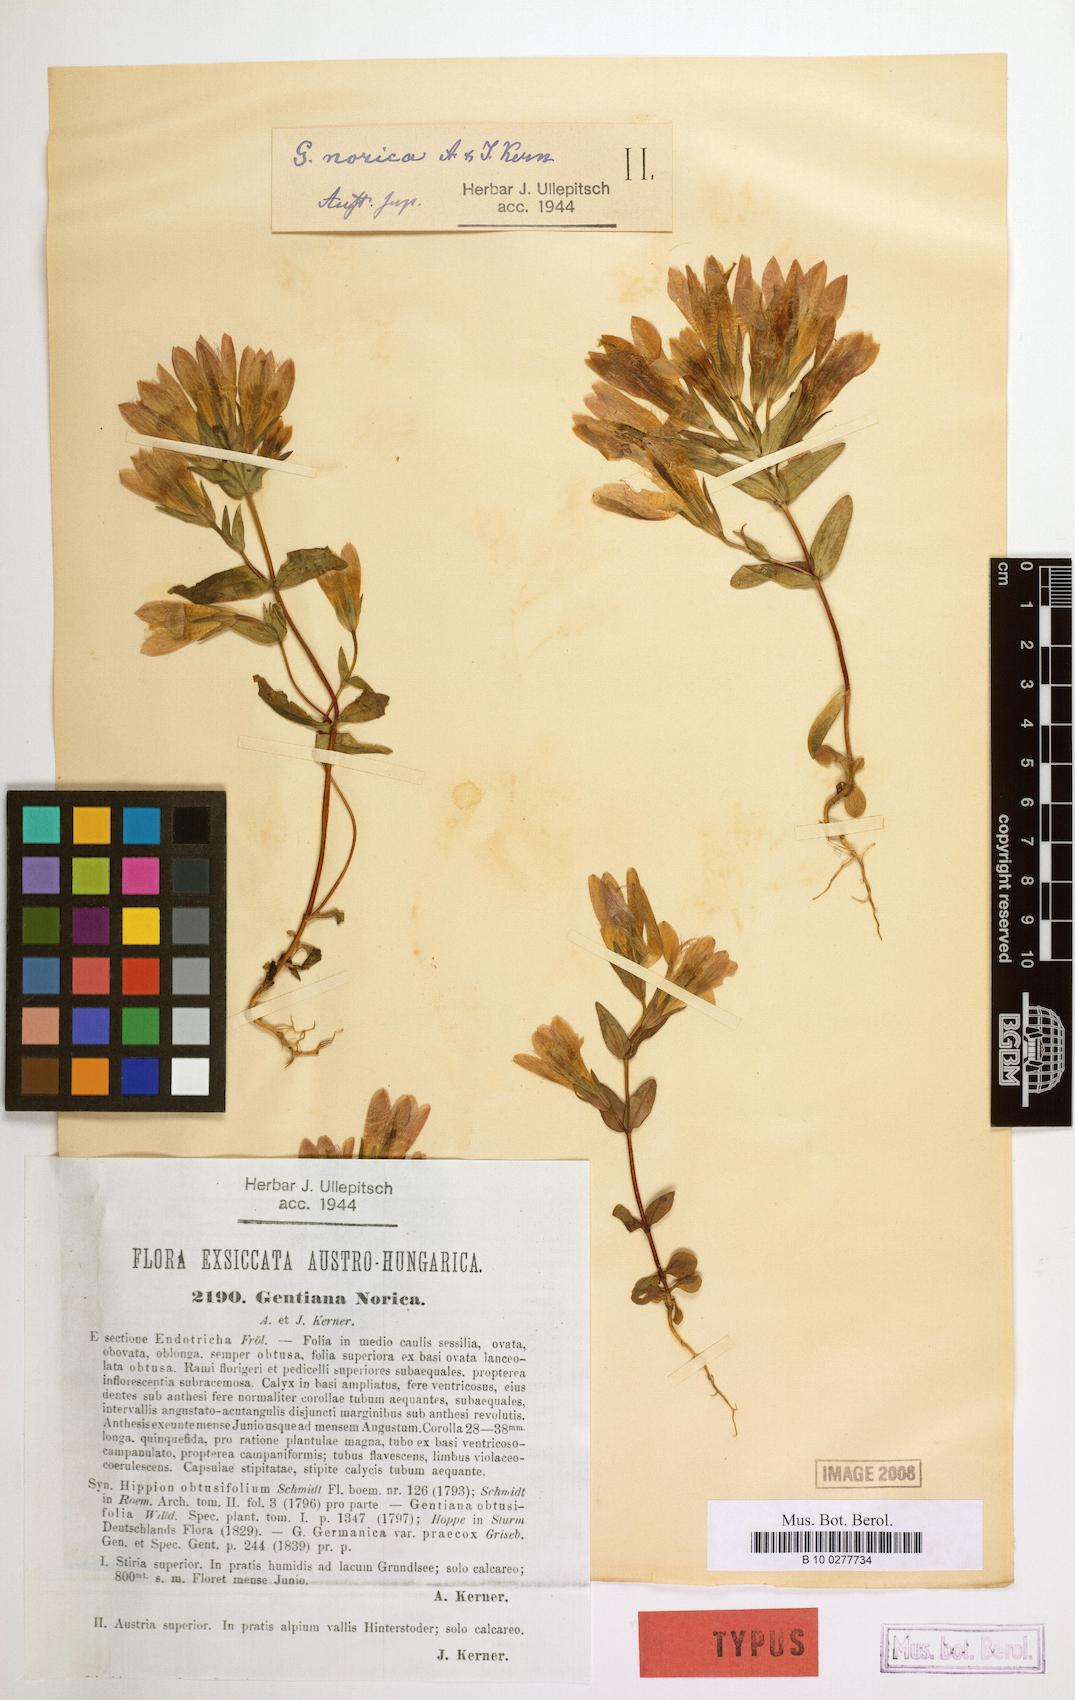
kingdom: Plantae
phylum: Tracheophyta
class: Magnoliopsida
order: Gentianales
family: Gentianaceae
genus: Gentianella
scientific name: Gentianella obtusifolia
